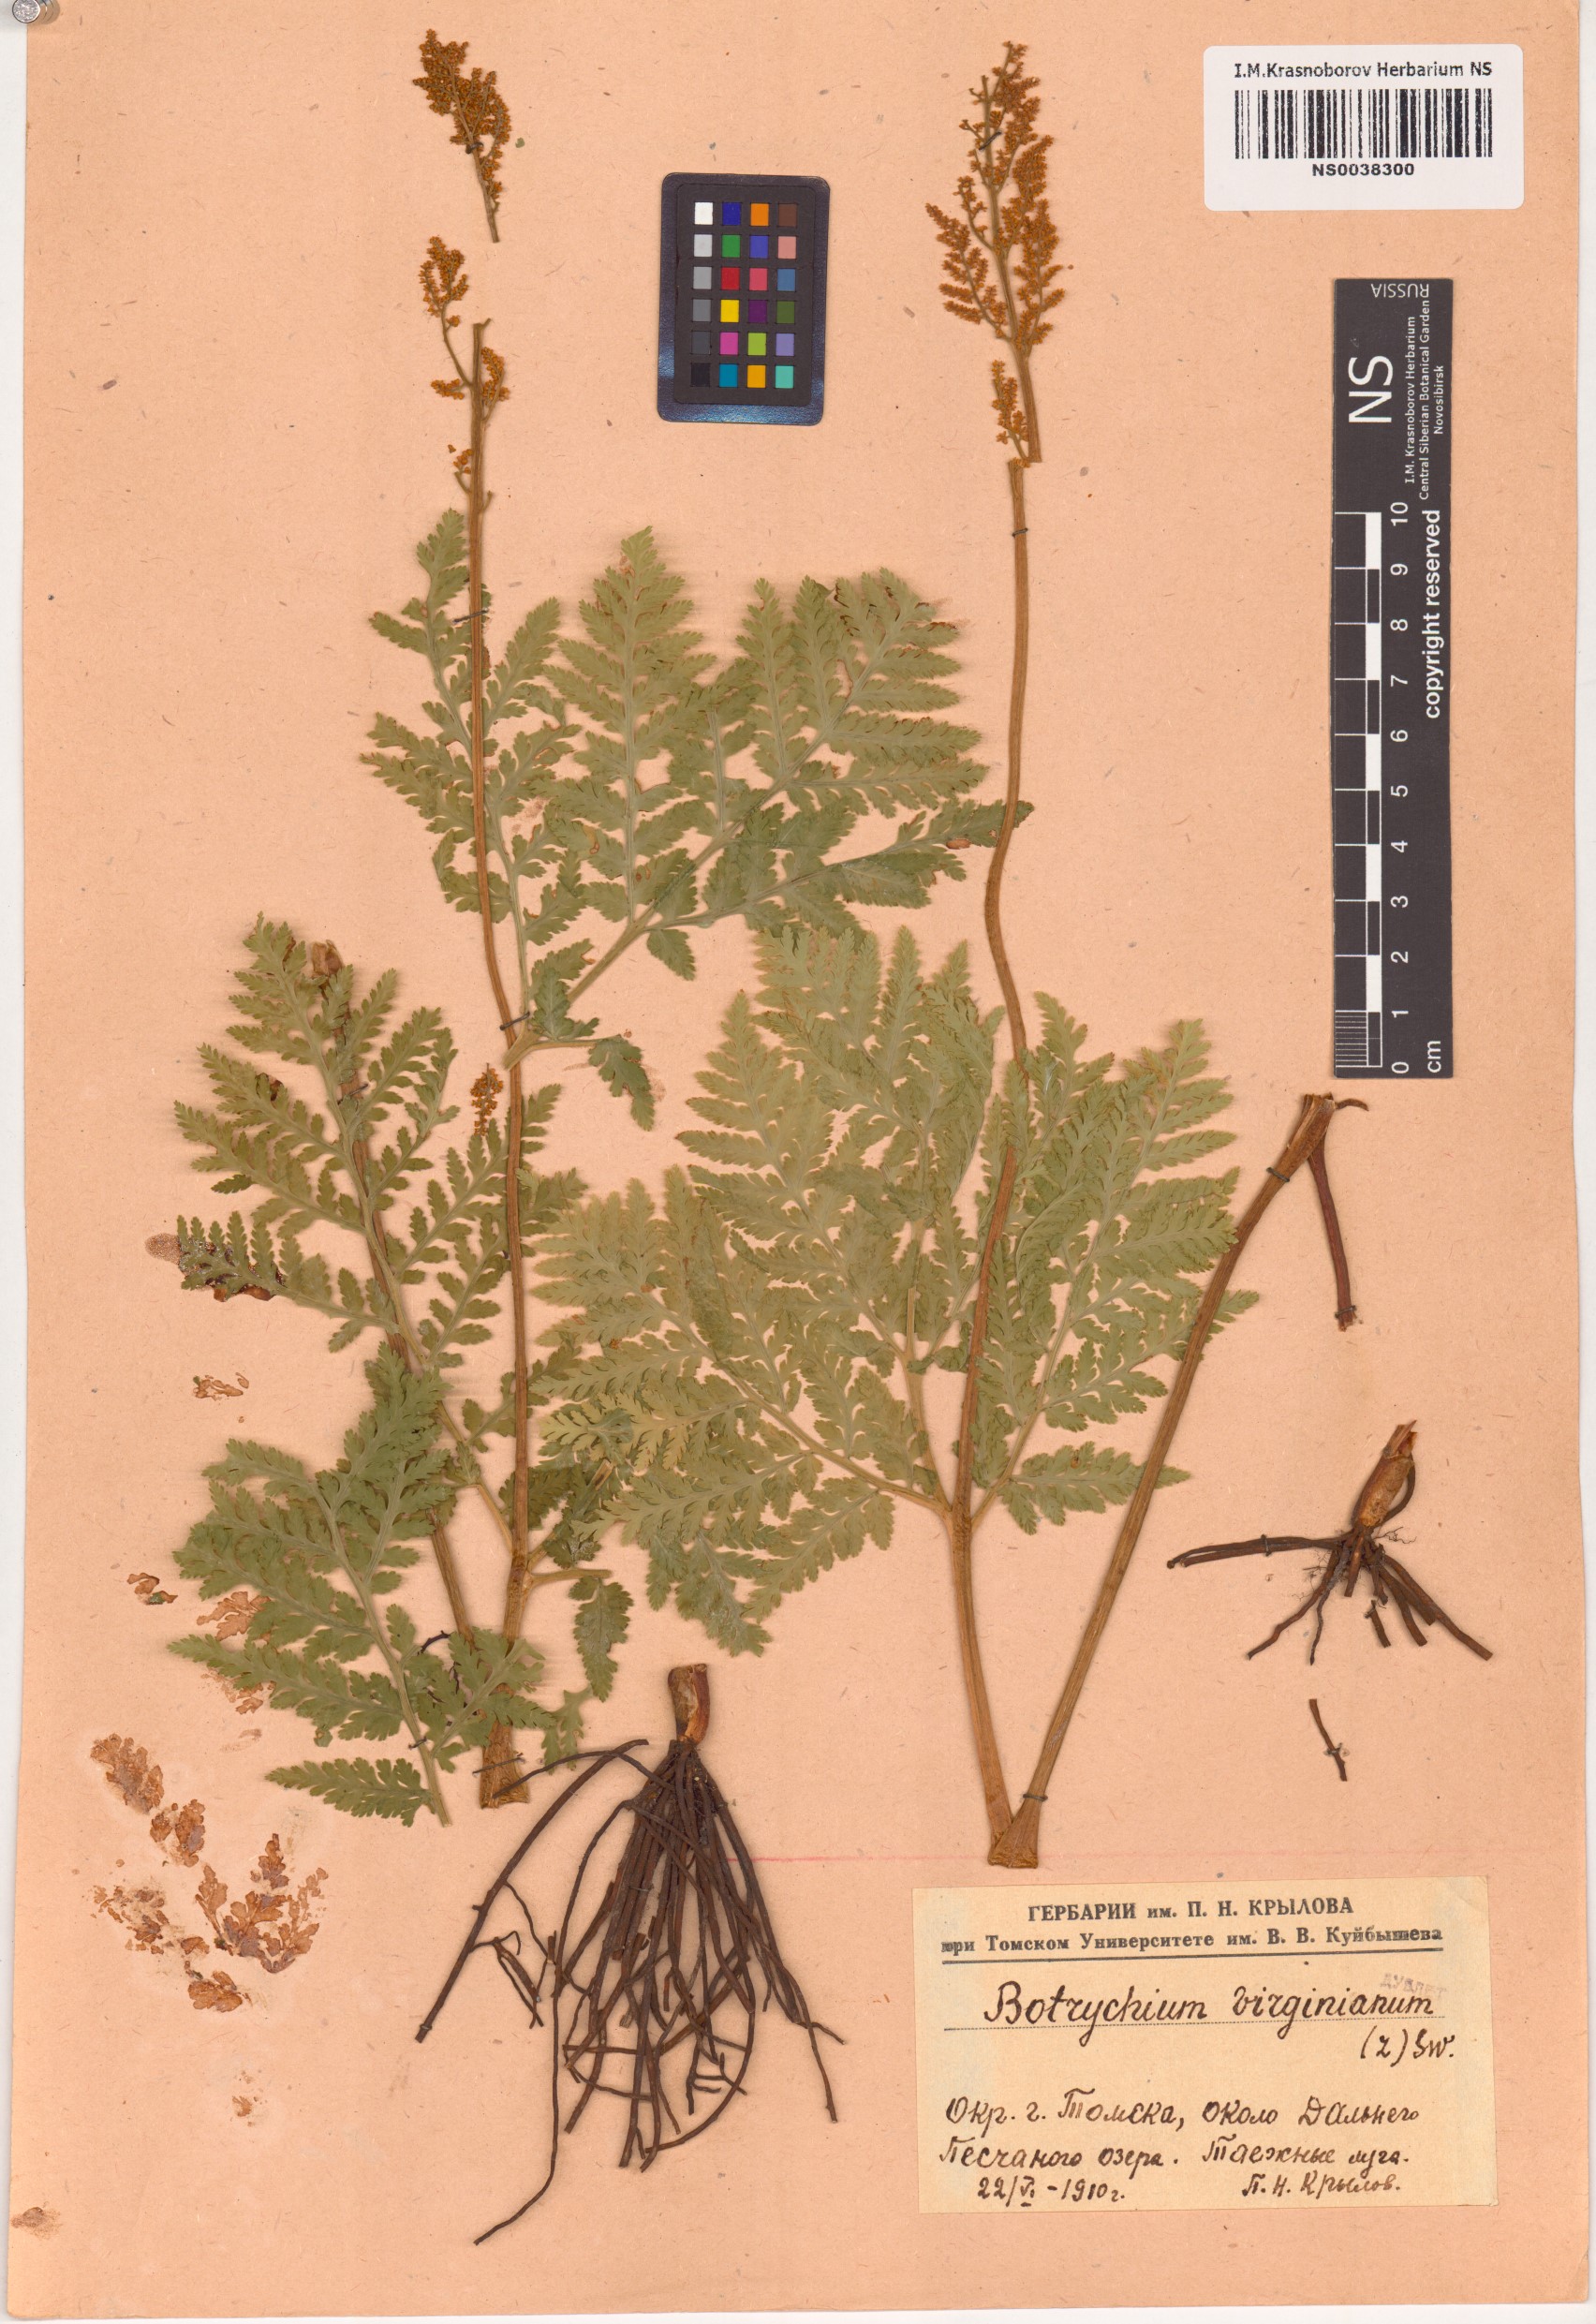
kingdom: Plantae
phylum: Tracheophyta
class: Polypodiopsida
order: Ophioglossales
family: Ophioglossaceae
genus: Botrypus
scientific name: Botrypus virginianus
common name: Common grapefern
